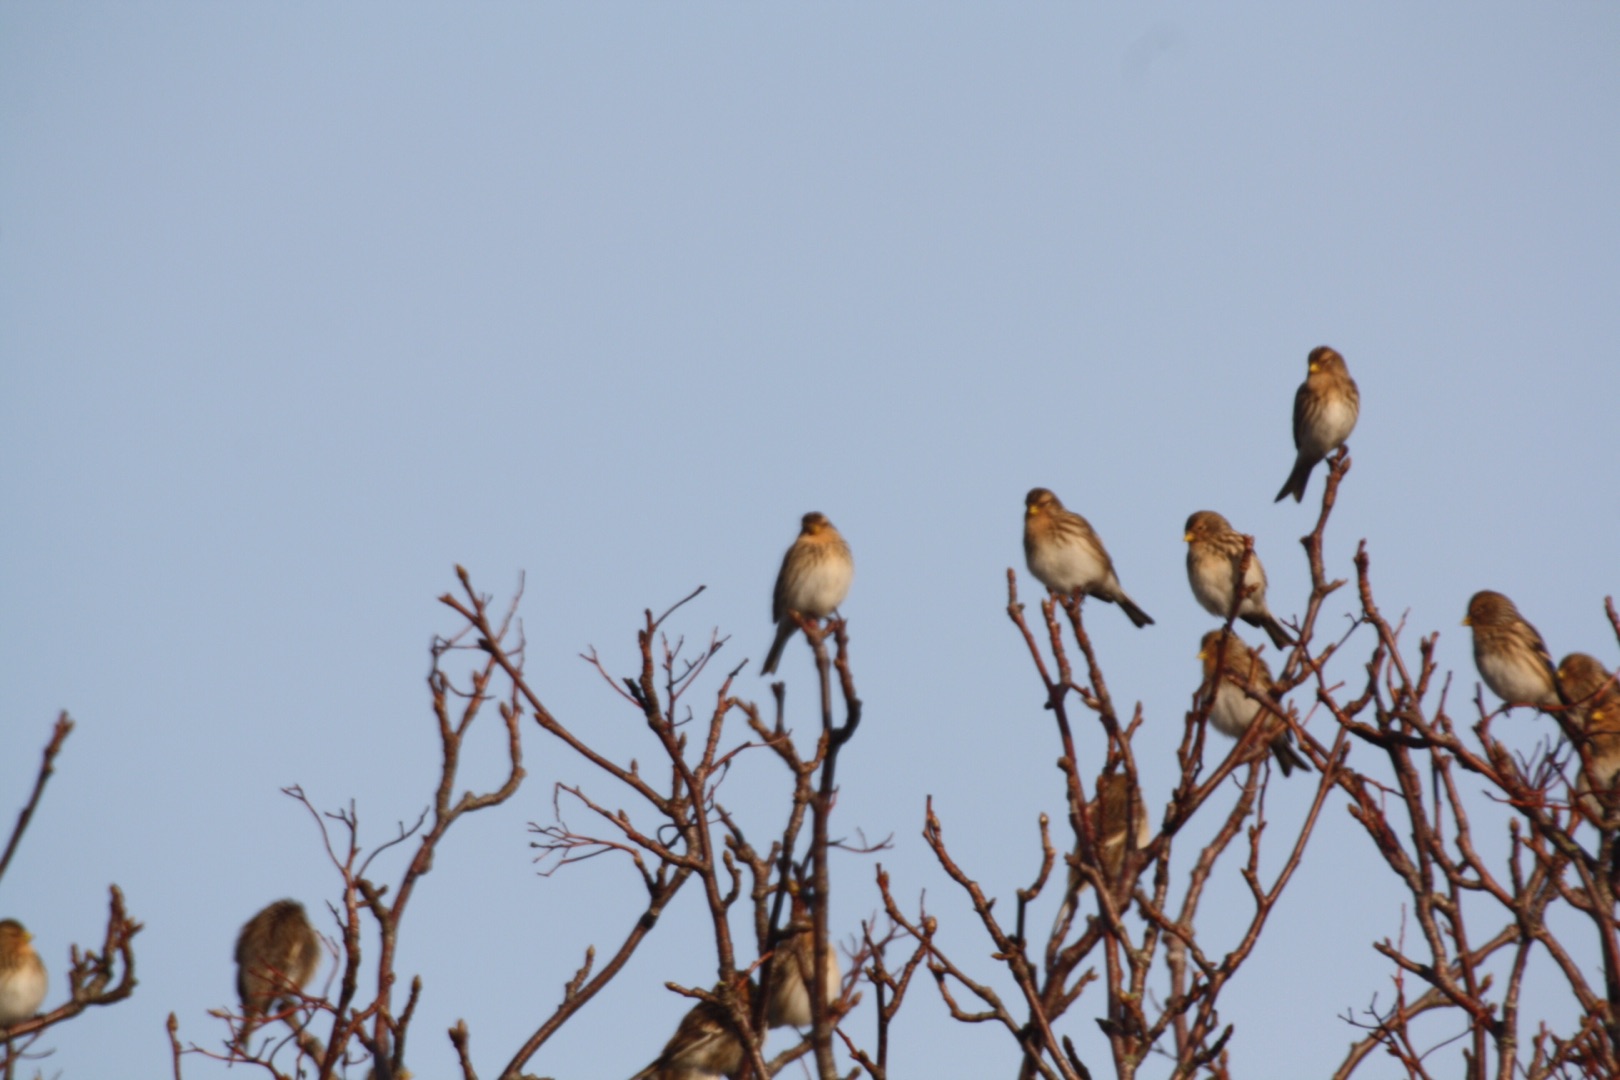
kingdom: Animalia
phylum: Chordata
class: Aves
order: Passeriformes
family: Fringillidae
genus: Linaria
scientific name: Linaria flavirostris
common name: Bjergirisk
